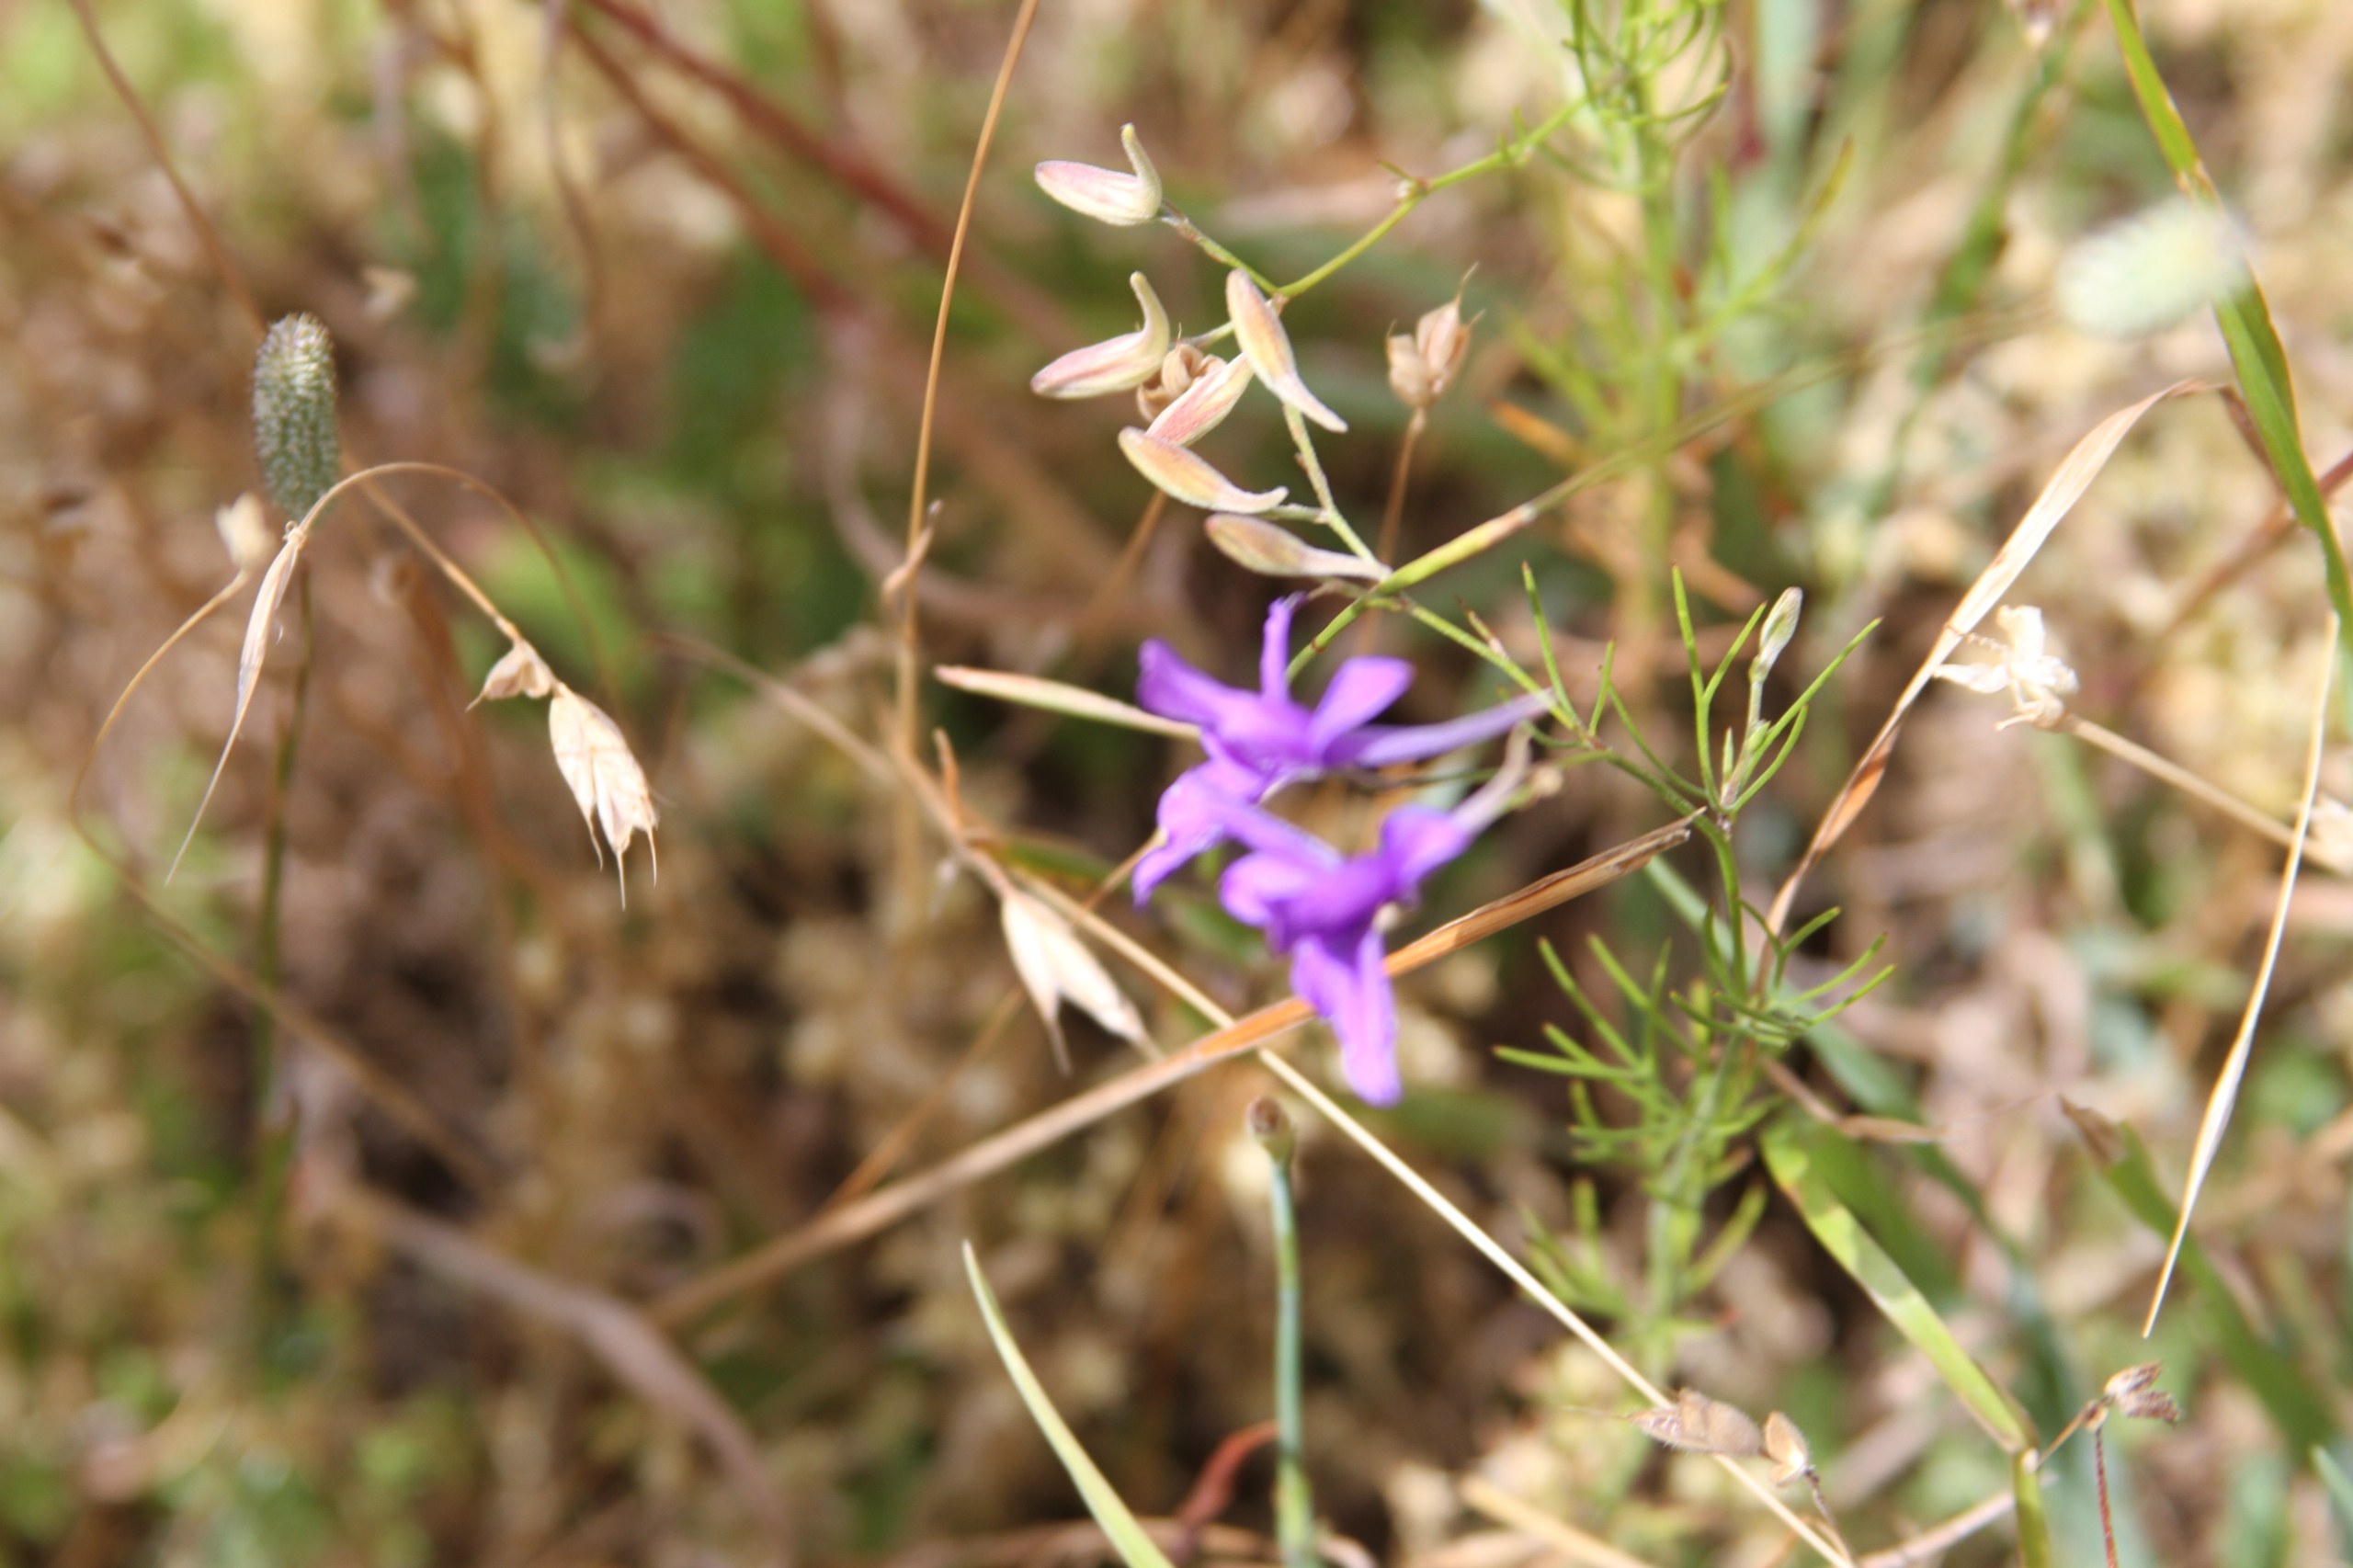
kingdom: Plantae
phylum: Tracheophyta
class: Magnoliopsida
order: Ranunculales
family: Ranunculaceae
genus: Delphinium
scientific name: Delphinium consolida
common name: Korn-ridderspore
